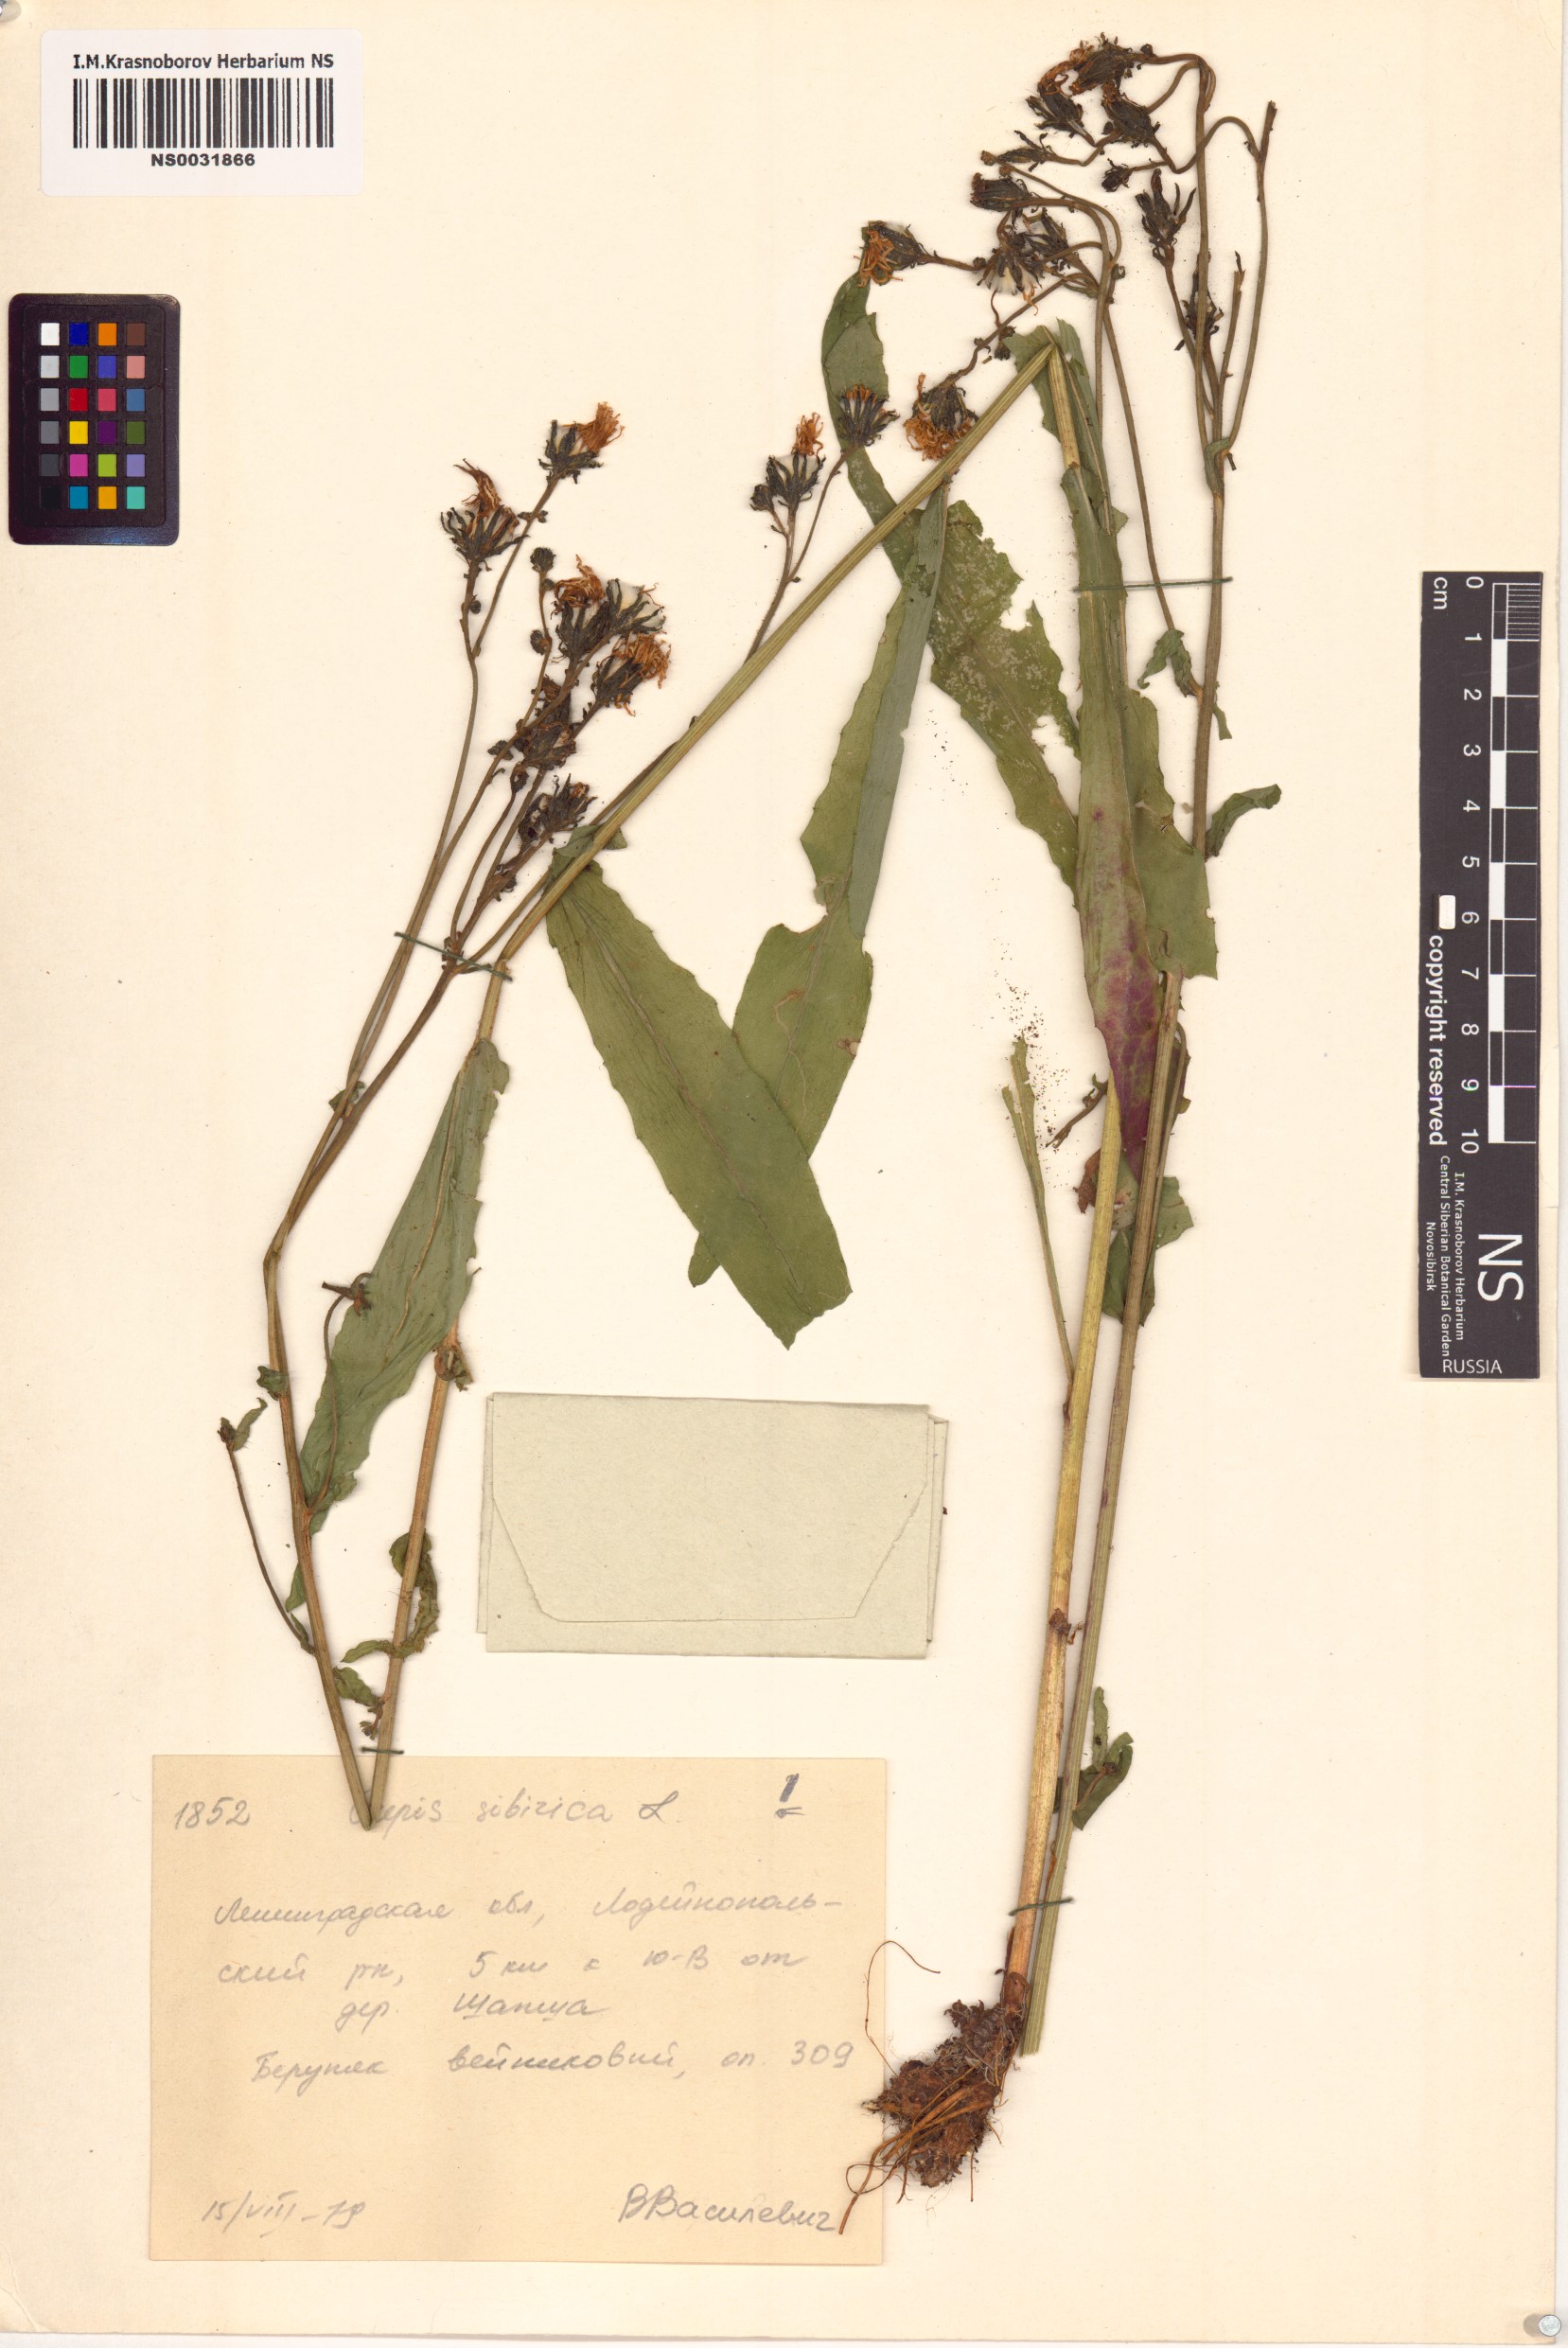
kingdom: Plantae
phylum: Tracheophyta
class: Magnoliopsida
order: Asterales
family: Asteraceae
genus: Crepis
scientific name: Crepis sibirica
